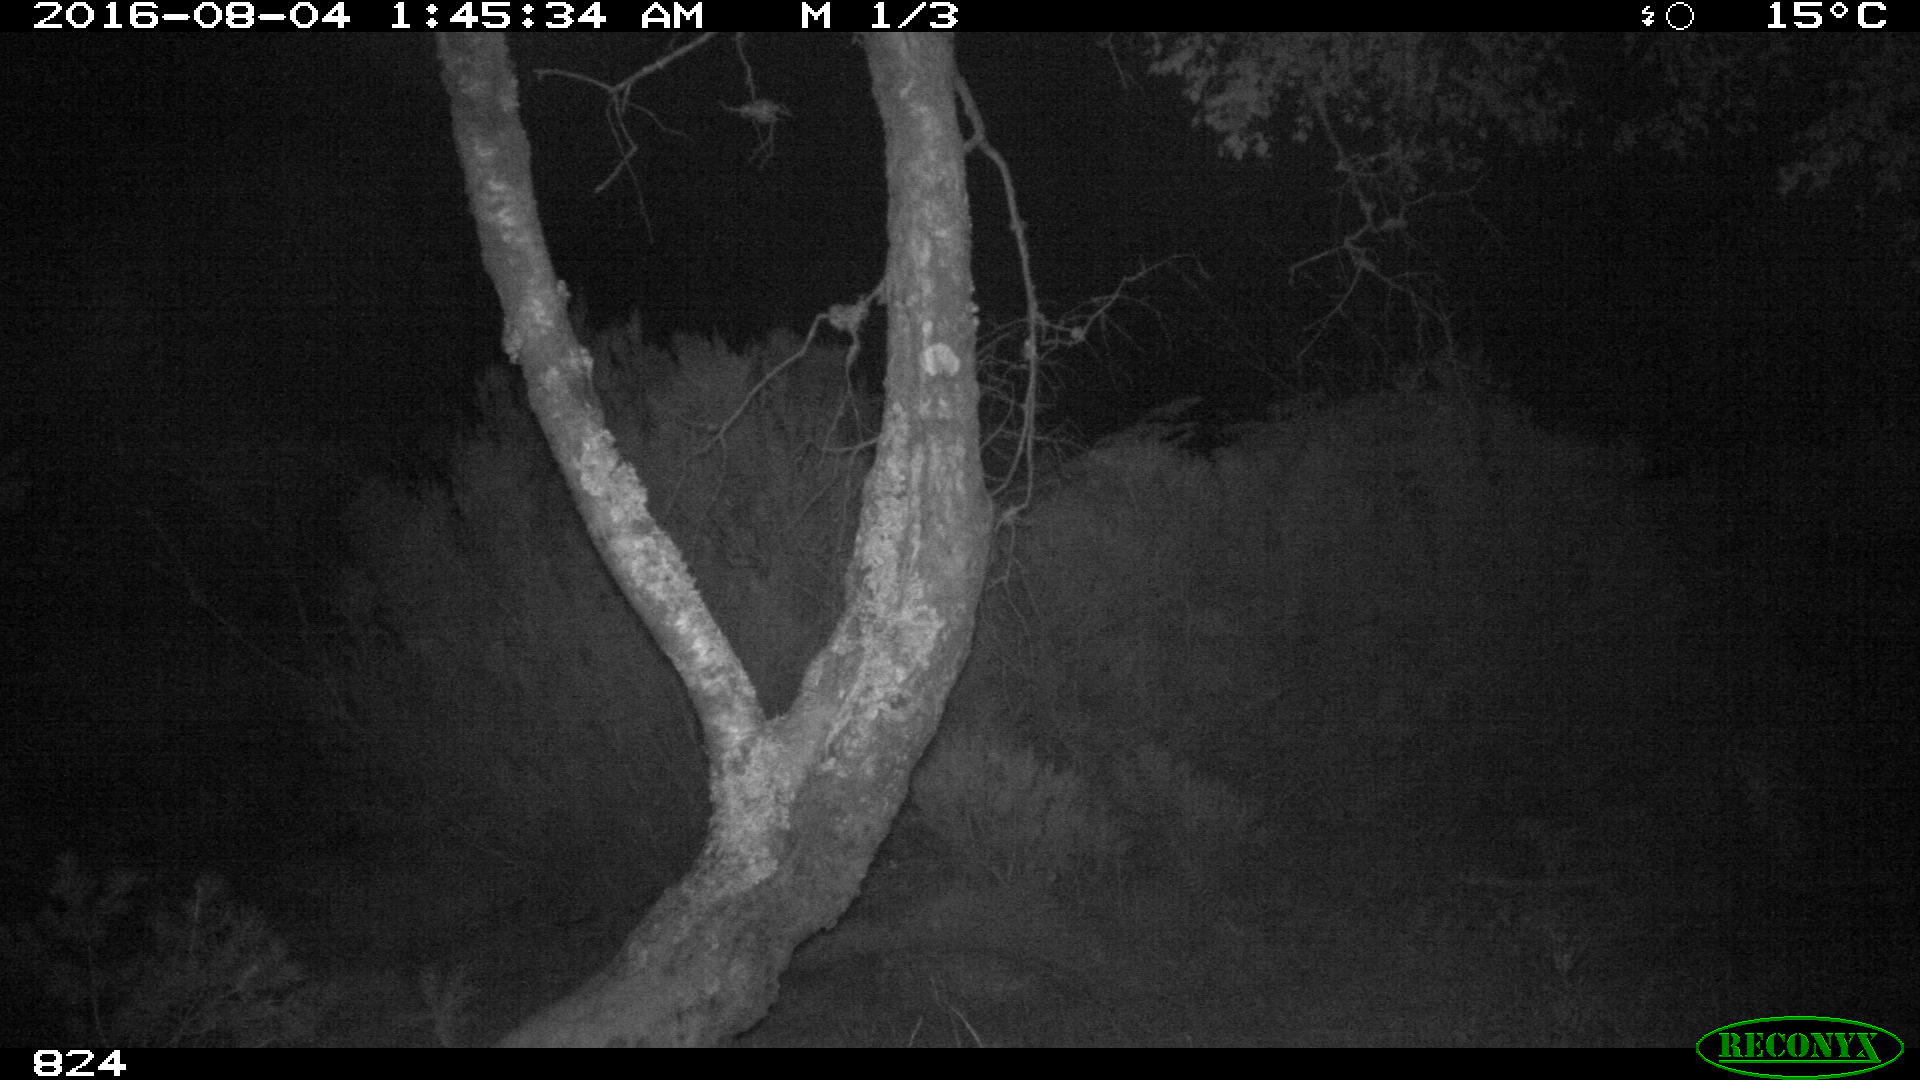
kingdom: Animalia
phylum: Chordata
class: Mammalia
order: Artiodactyla
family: Suidae
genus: Sus
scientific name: Sus scrofa
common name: Wild boar
